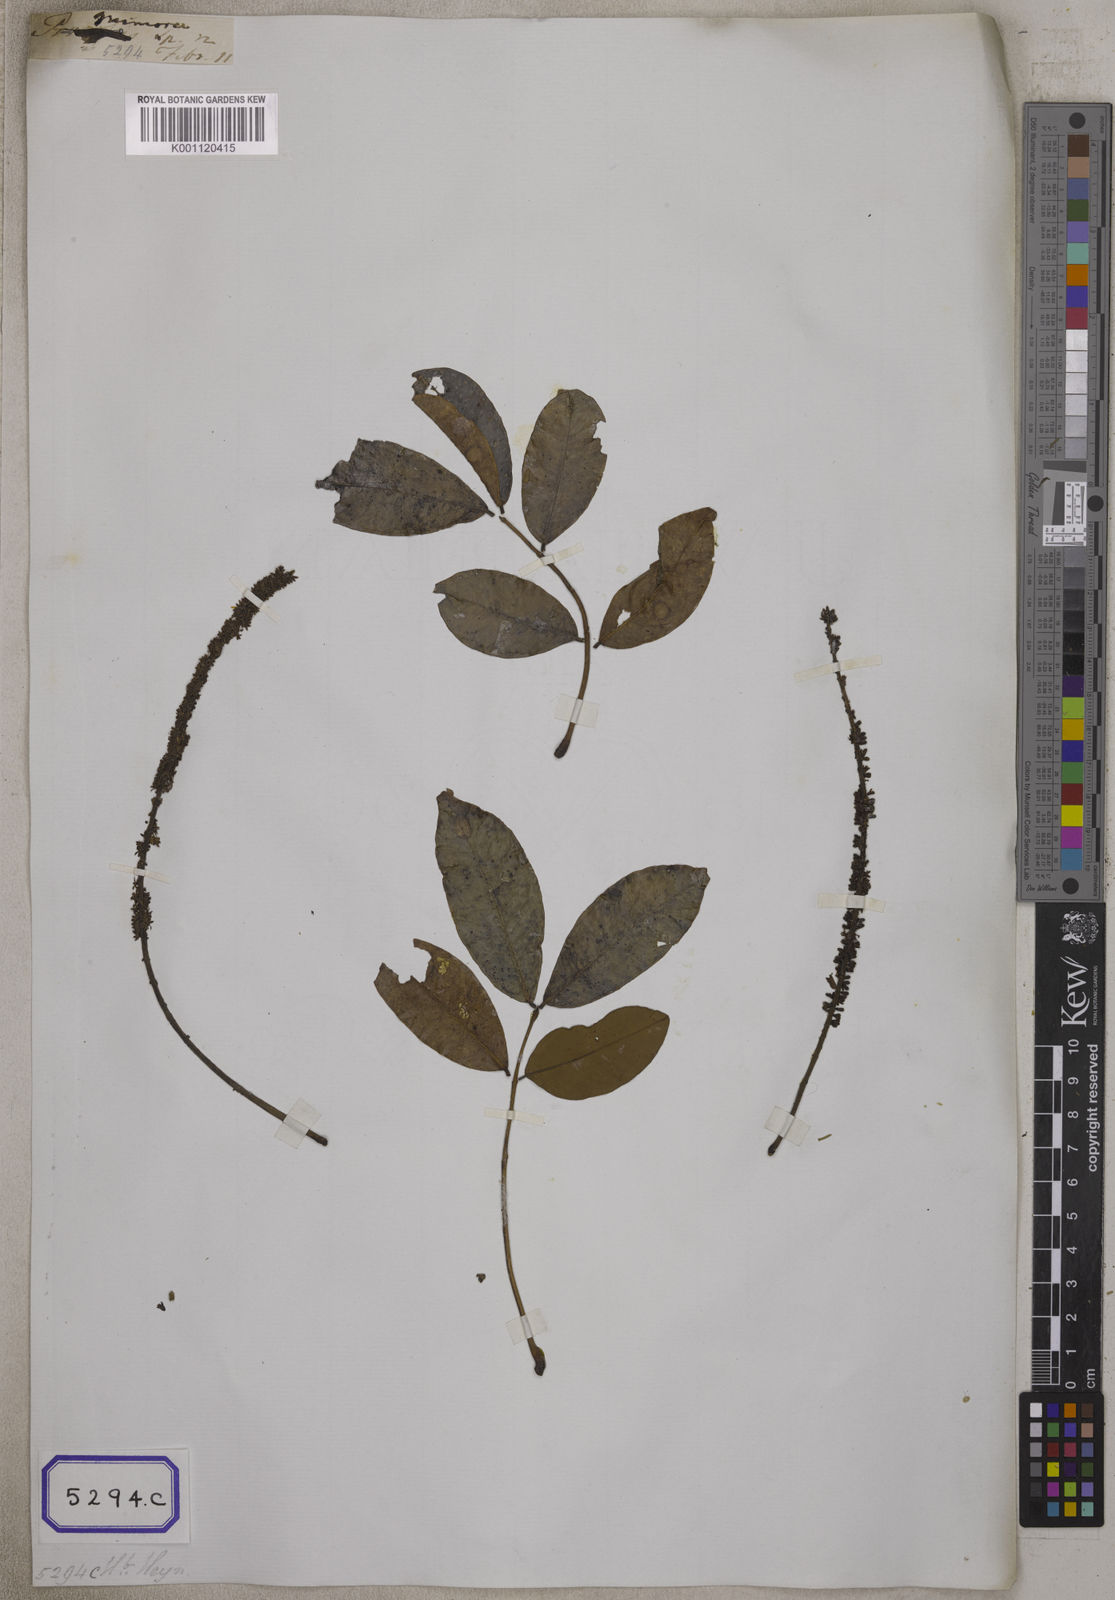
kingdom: Plantae
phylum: Tracheophyta
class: Magnoliopsida
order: Fabales
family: Fabaceae
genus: Entada
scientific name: Entada rheedei
